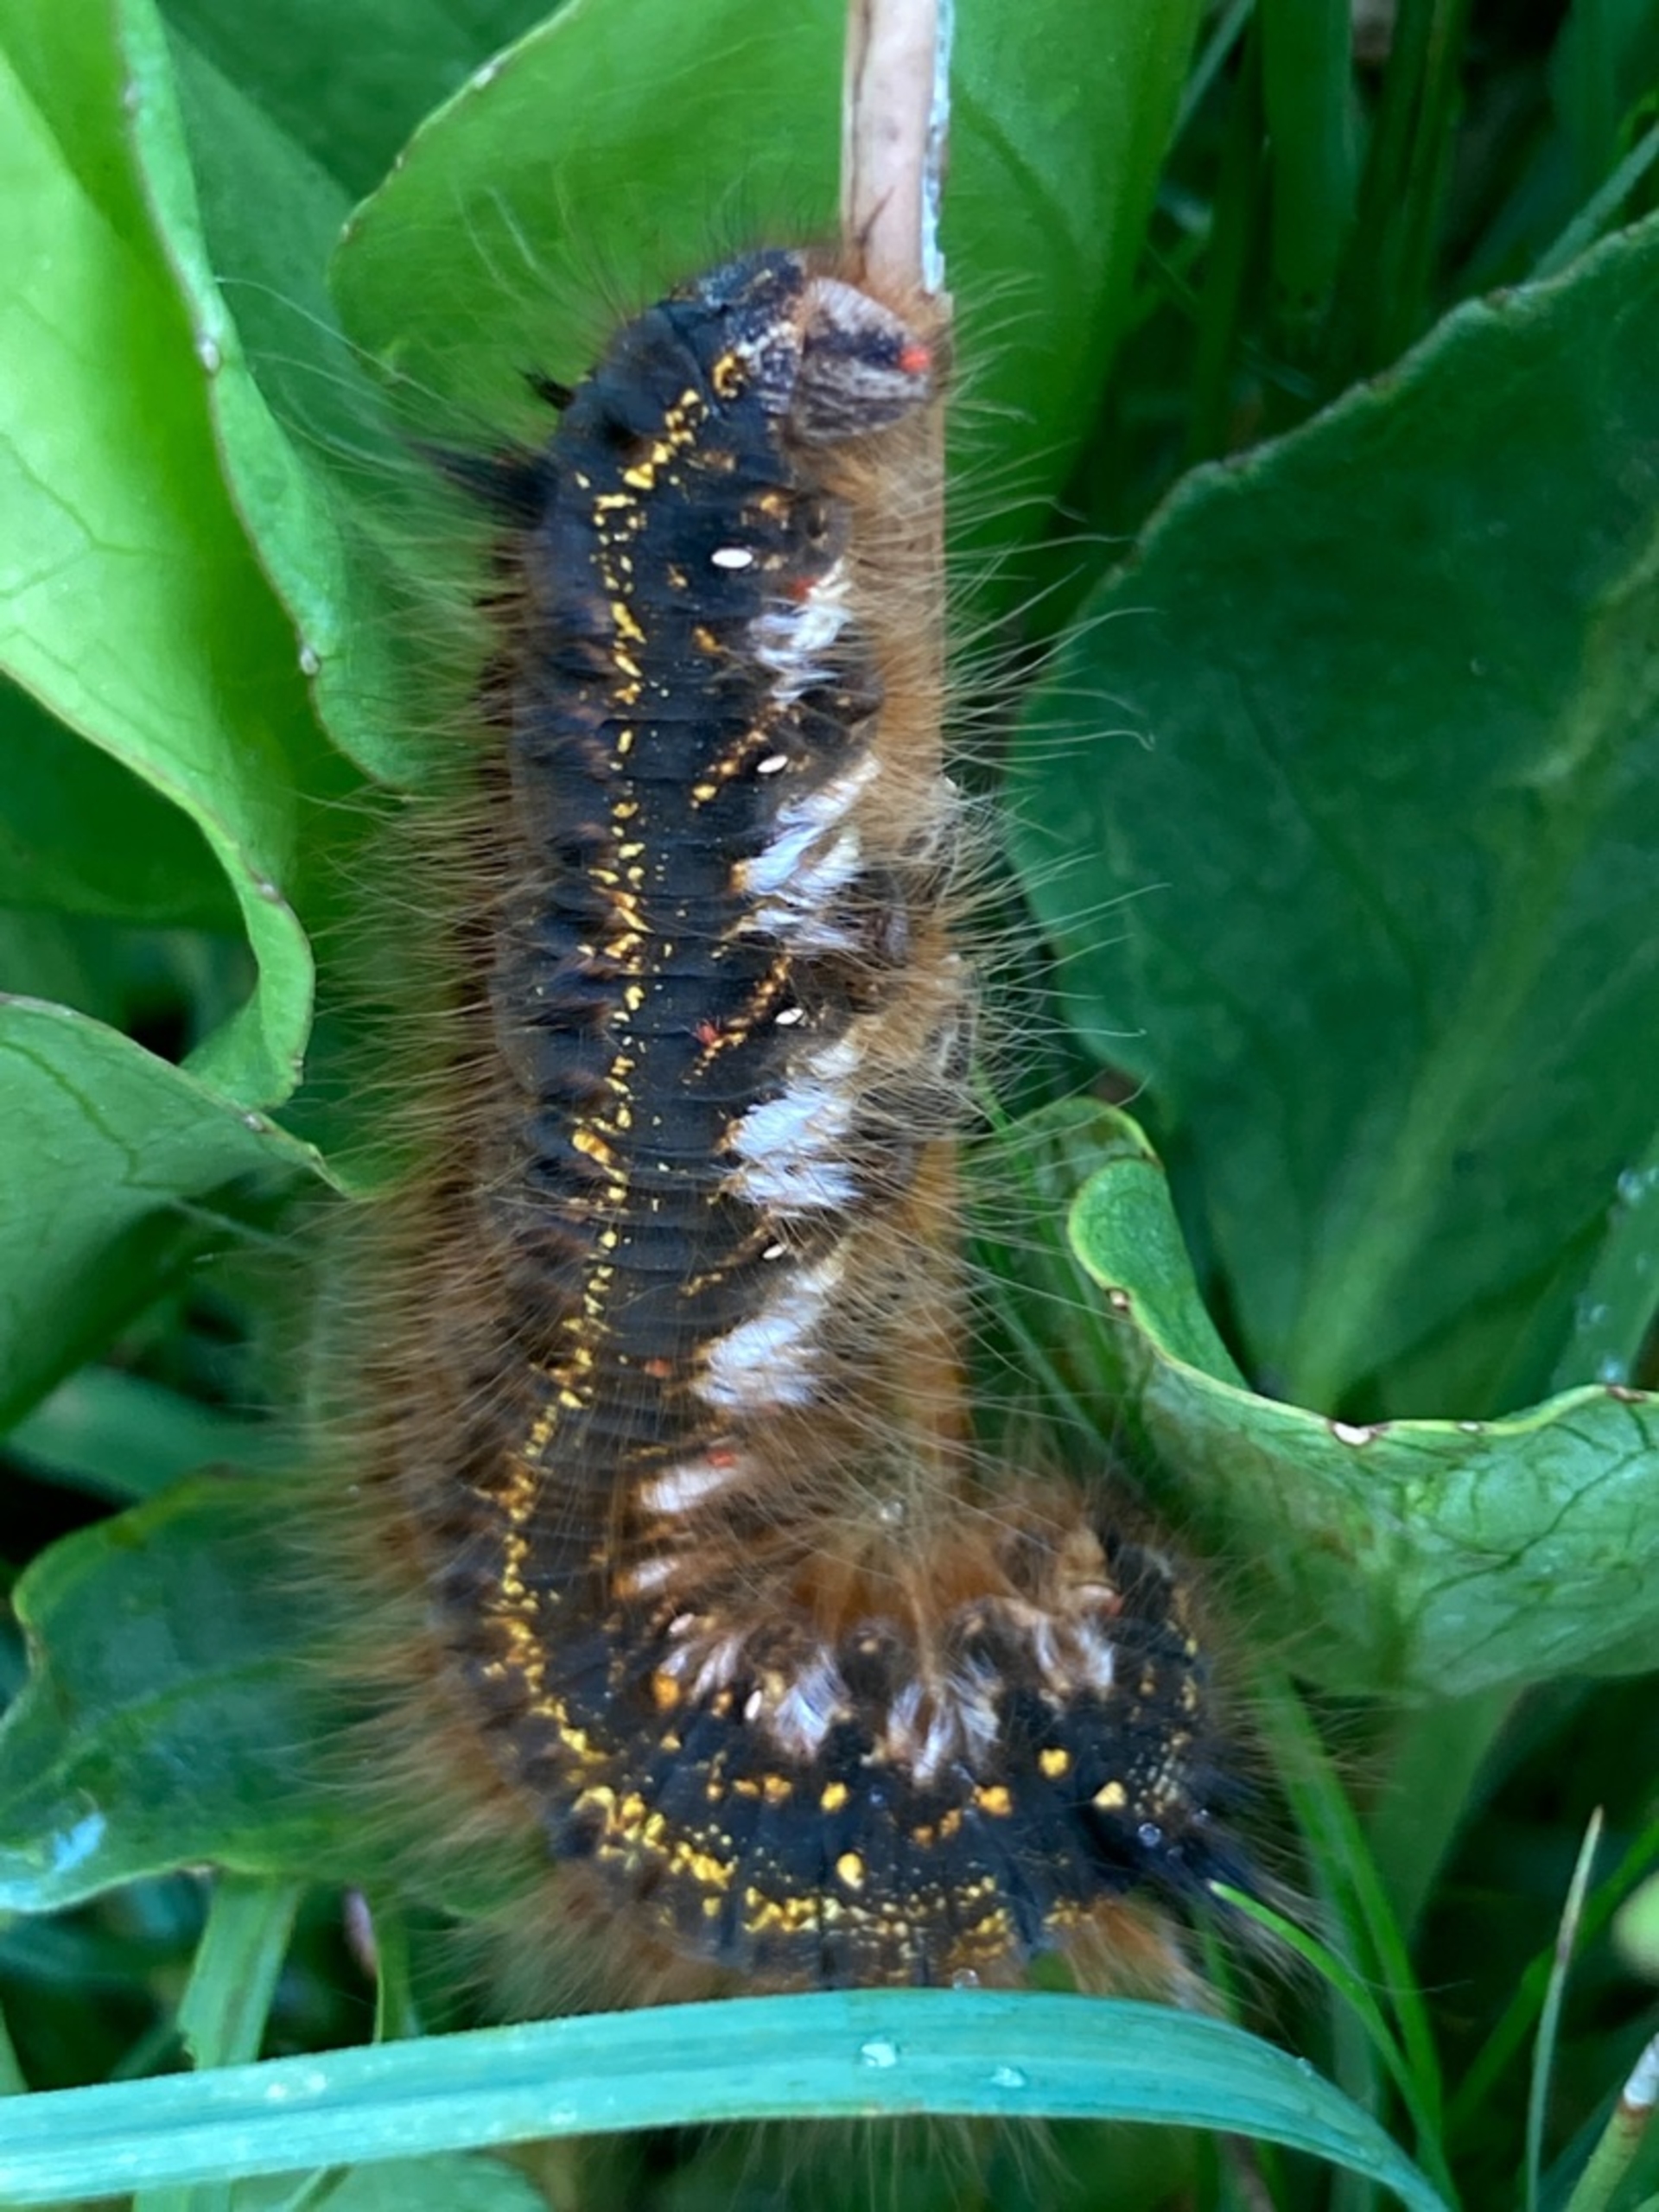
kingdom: Animalia
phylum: Arthropoda
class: Insecta
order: Lepidoptera
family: Lasiocampidae
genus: Euthrix
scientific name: Euthrix potatoria
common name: Græsspinder
